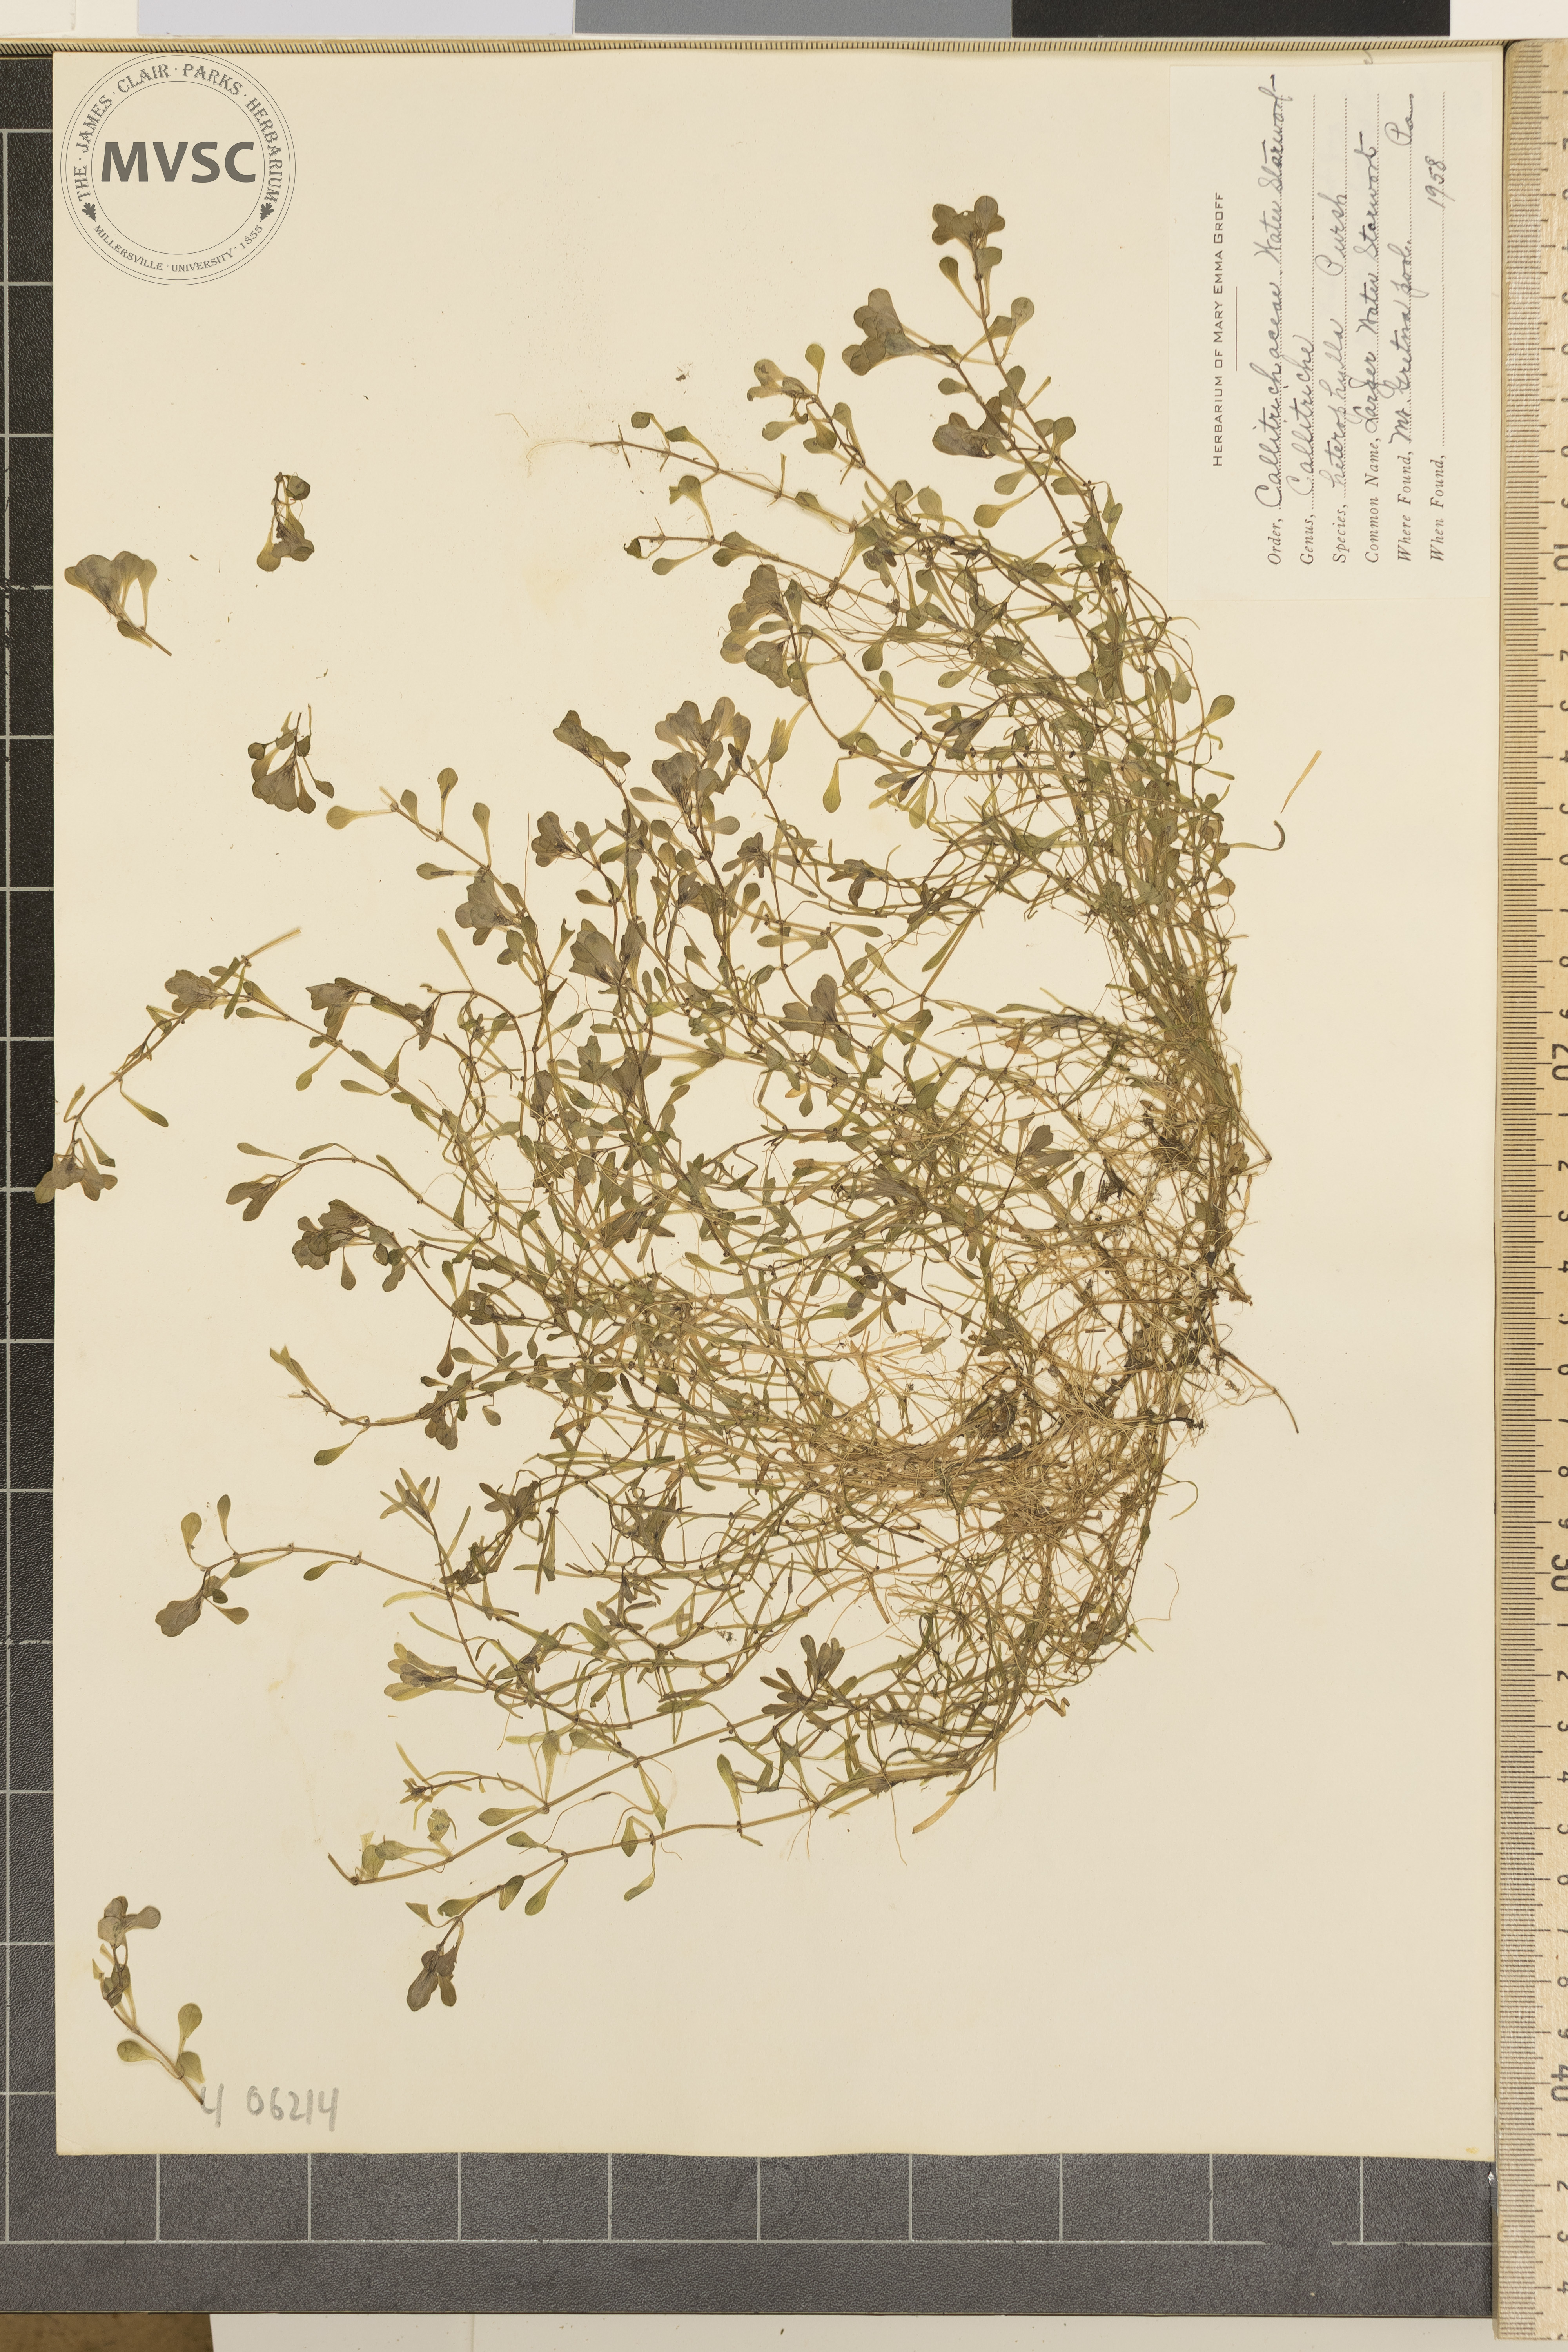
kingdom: Plantae
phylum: Tracheophyta
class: Magnoliopsida
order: Lamiales
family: Plantaginaceae
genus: Callitriche
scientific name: Callitriche heterophylla
